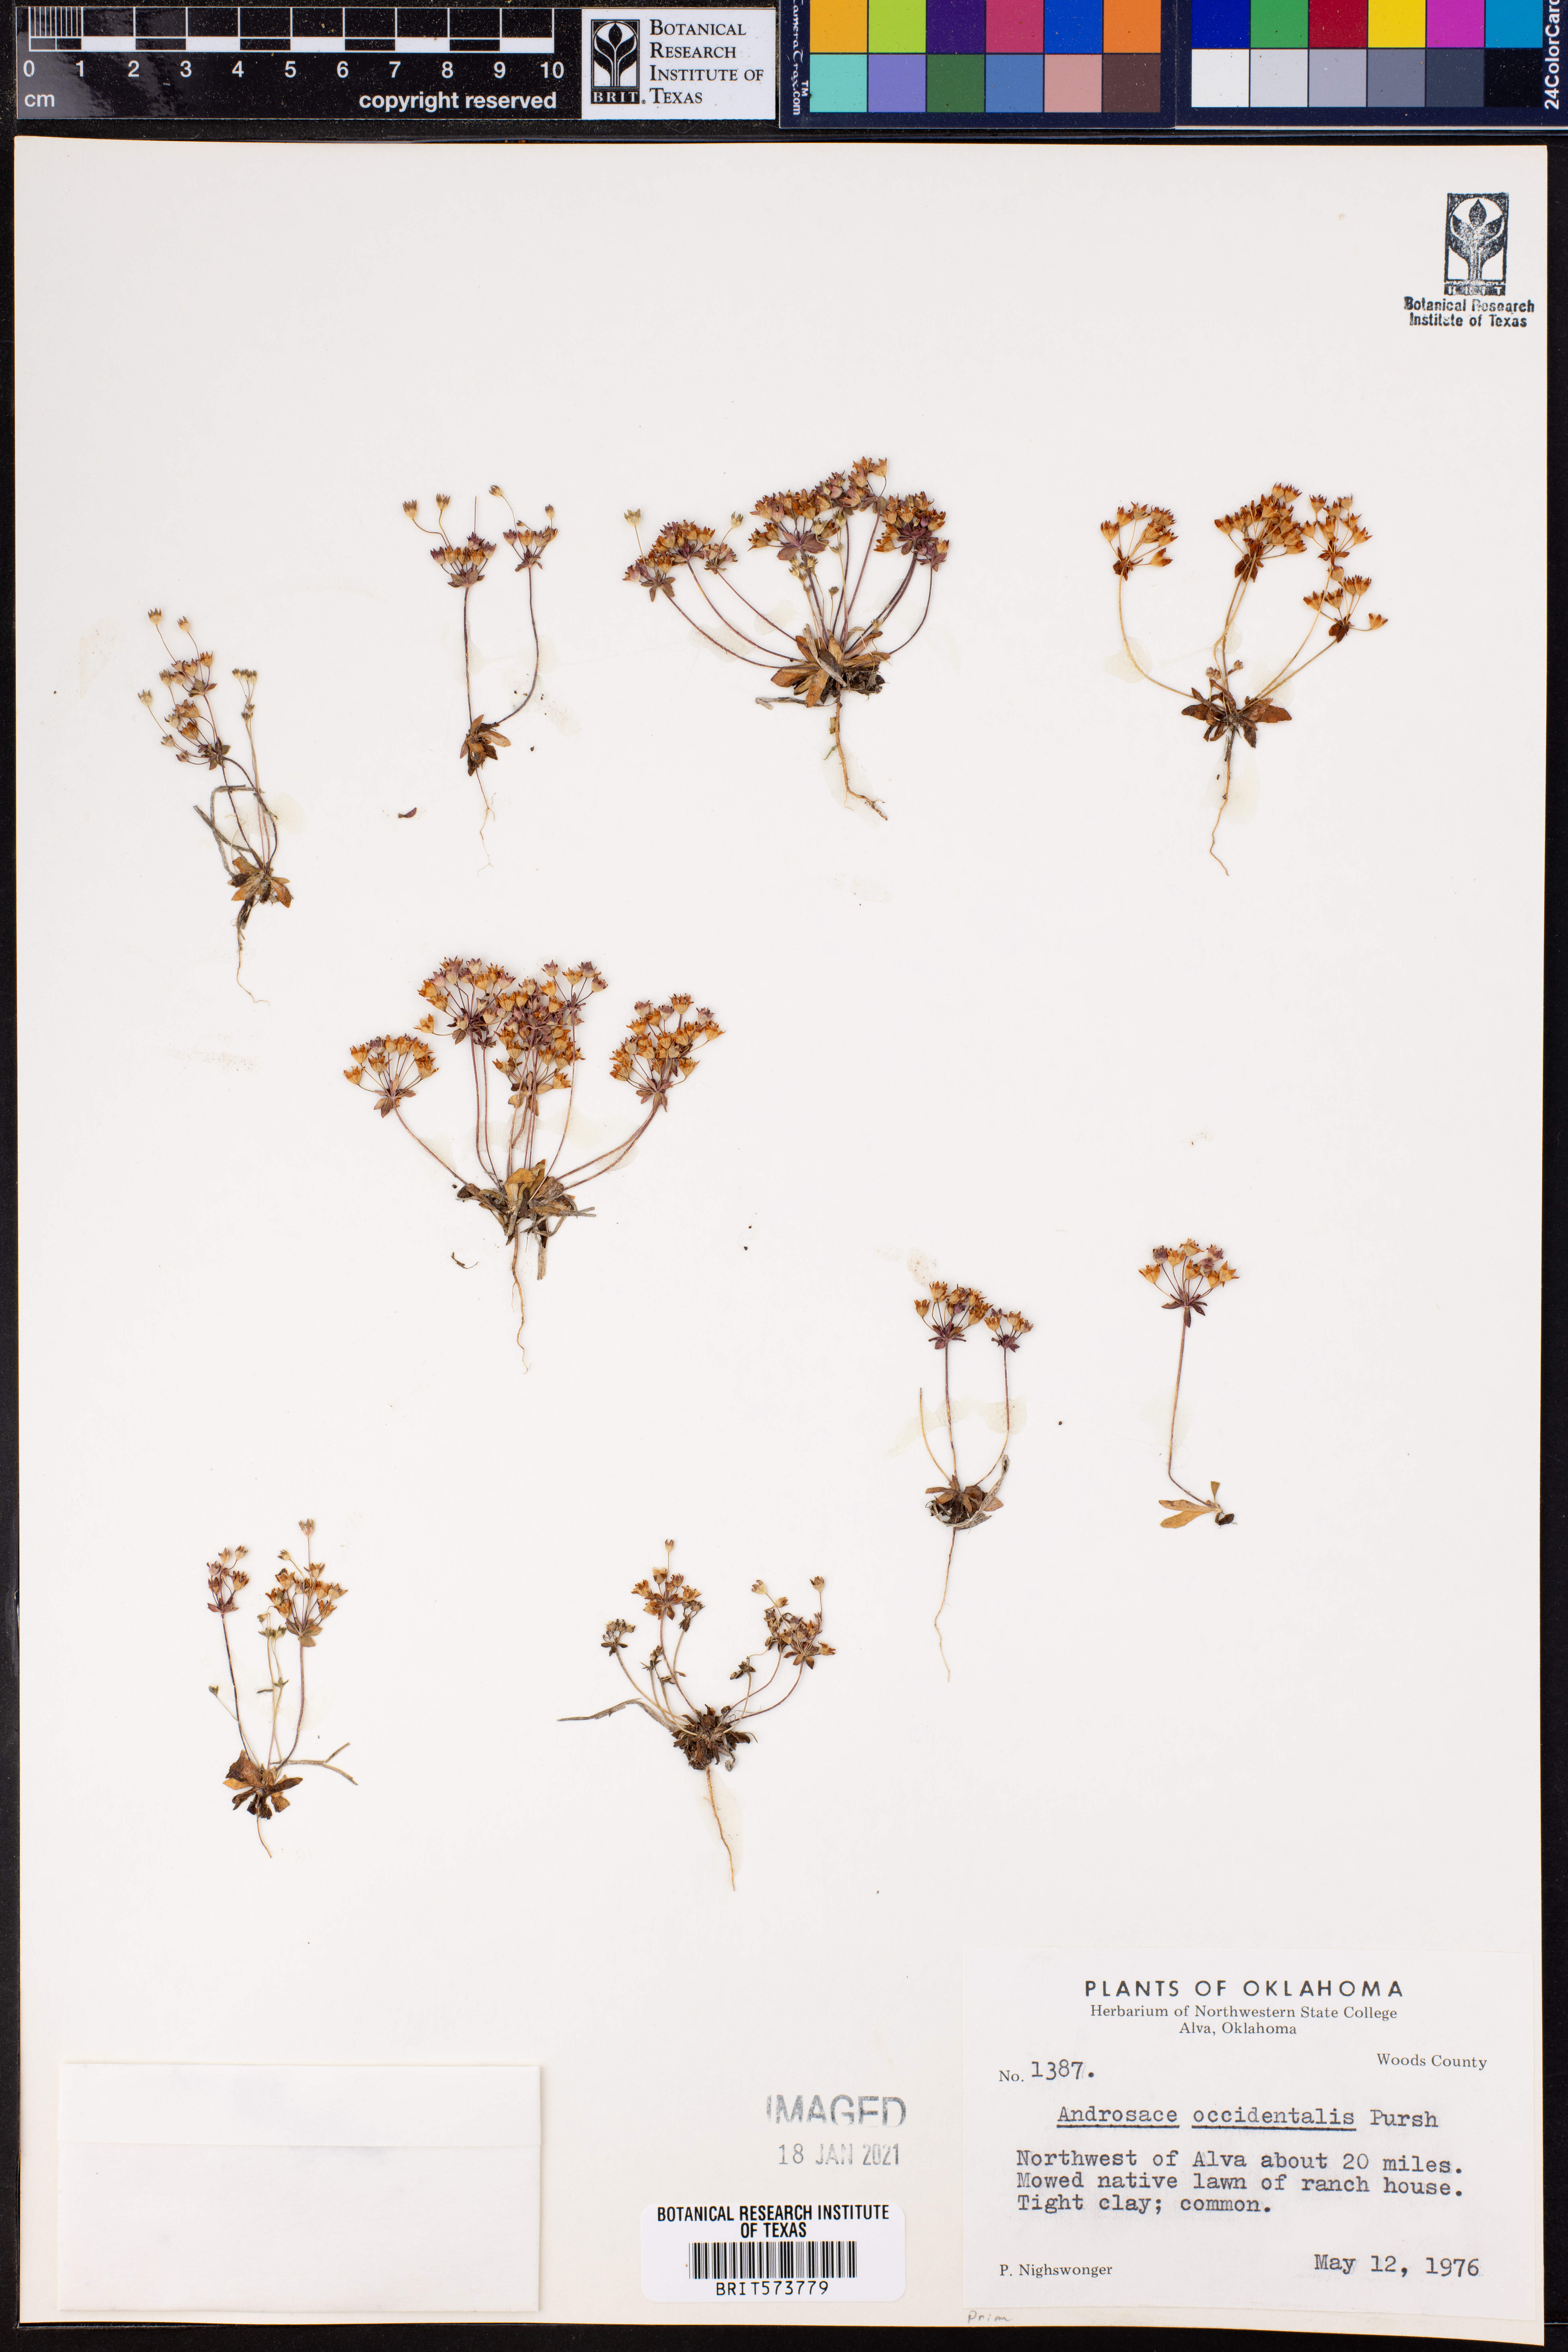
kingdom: Plantae
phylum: Tracheophyta
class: Magnoliopsida
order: Ericales
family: Primulaceae
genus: Androsace
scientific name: Androsace occidentalis
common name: West rock-jasmine
